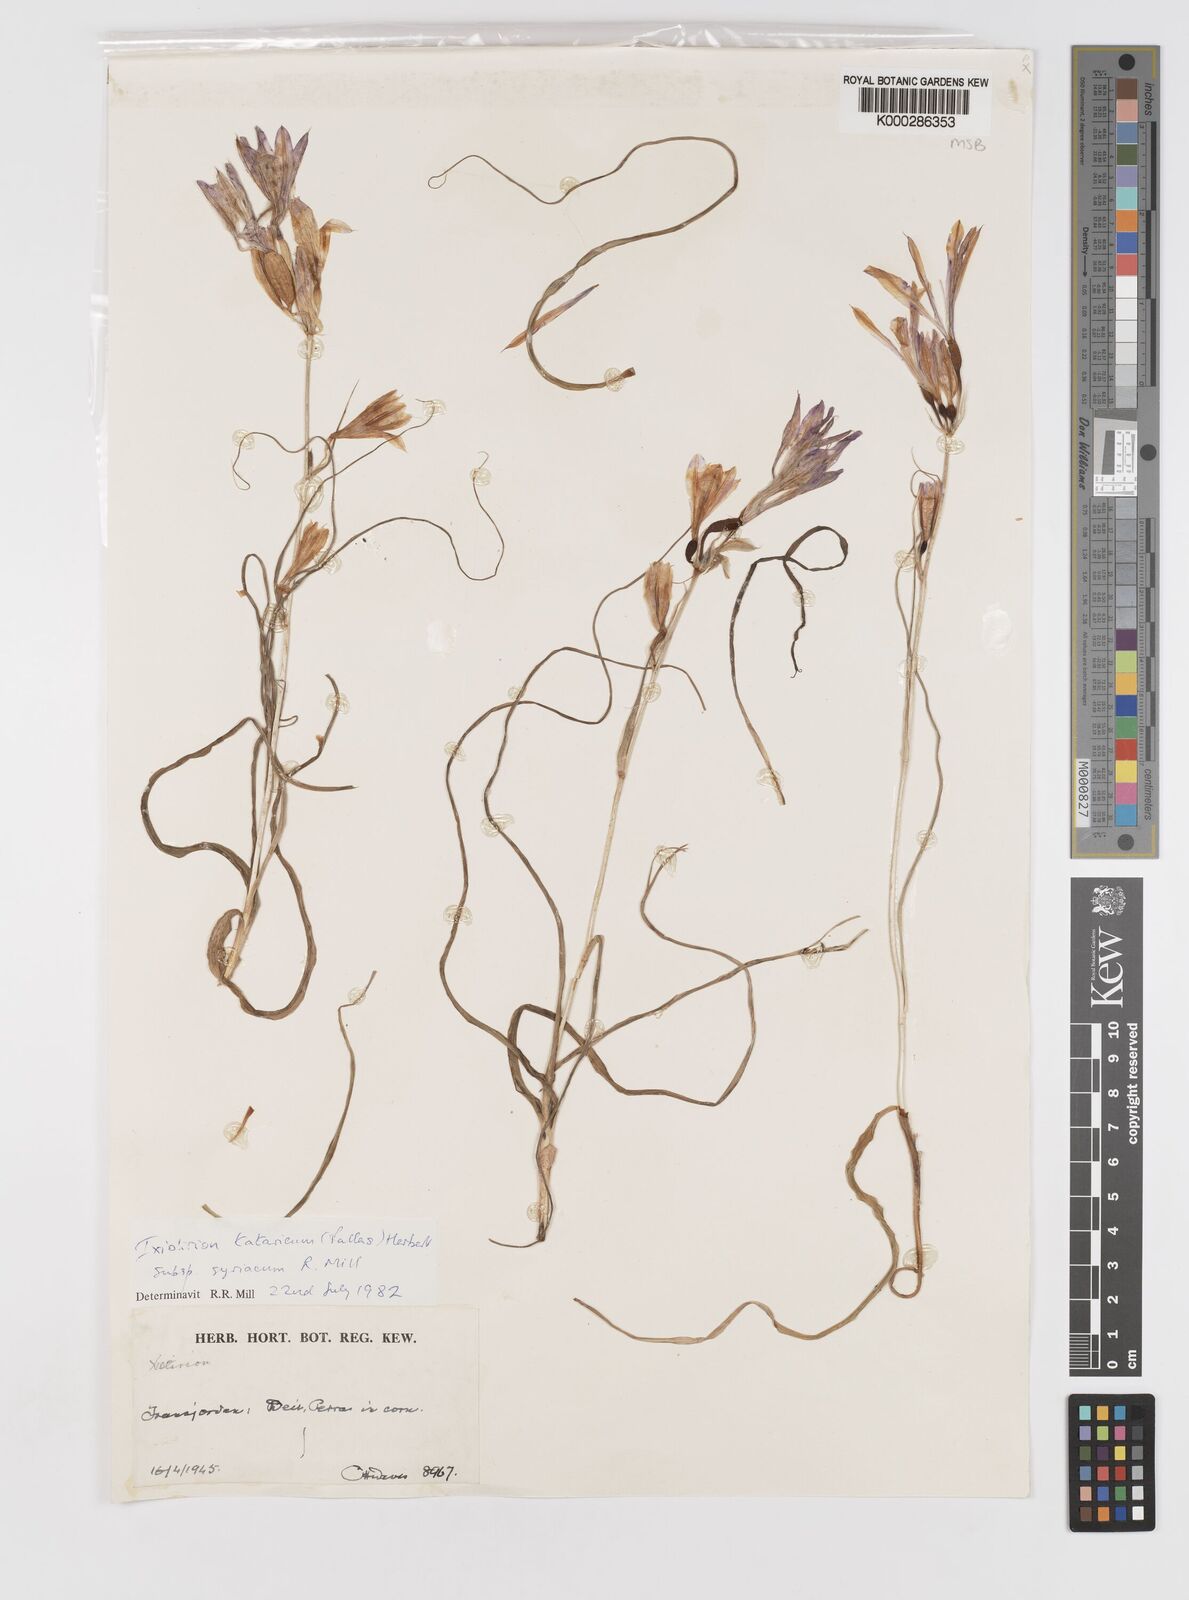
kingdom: Plantae
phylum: Tracheophyta
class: Liliopsida
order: Asparagales
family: Ixioliriaceae
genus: Ixiolirion
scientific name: Ixiolirion tataricum
